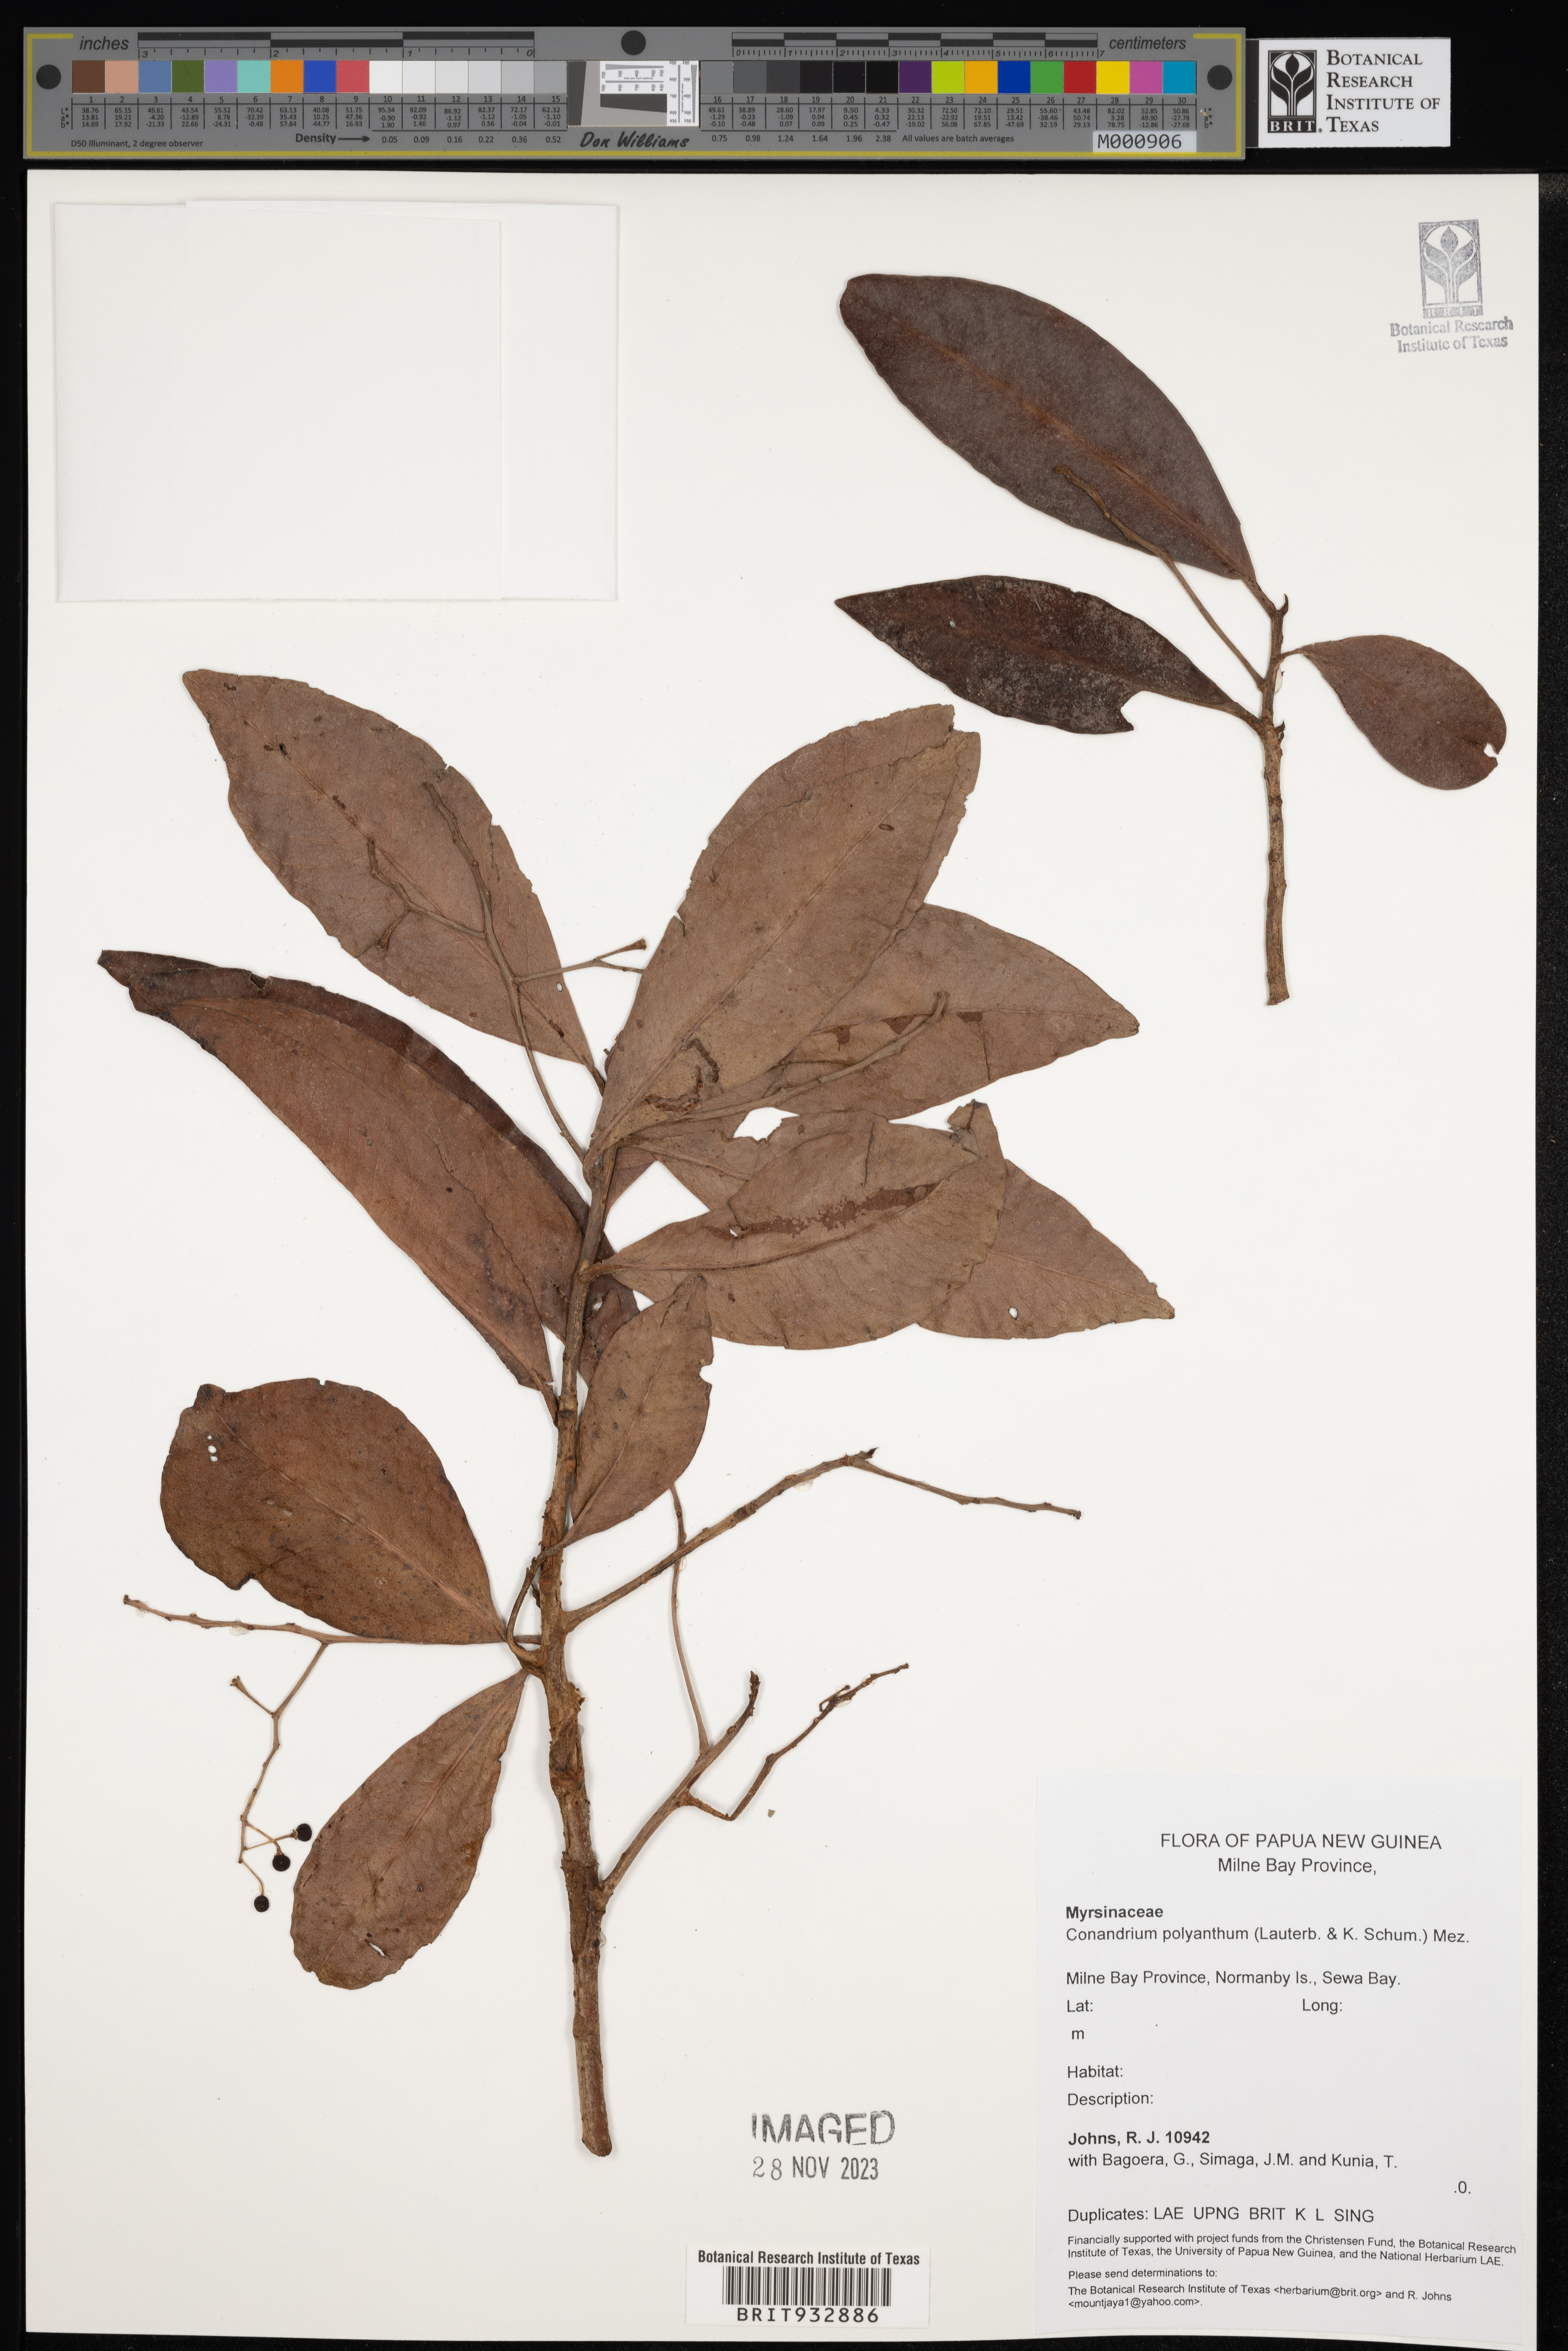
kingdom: Plantae
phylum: Tracheophyta
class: Magnoliopsida
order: Ericales
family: Primulaceae
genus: Conandrium
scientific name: Conandrium
